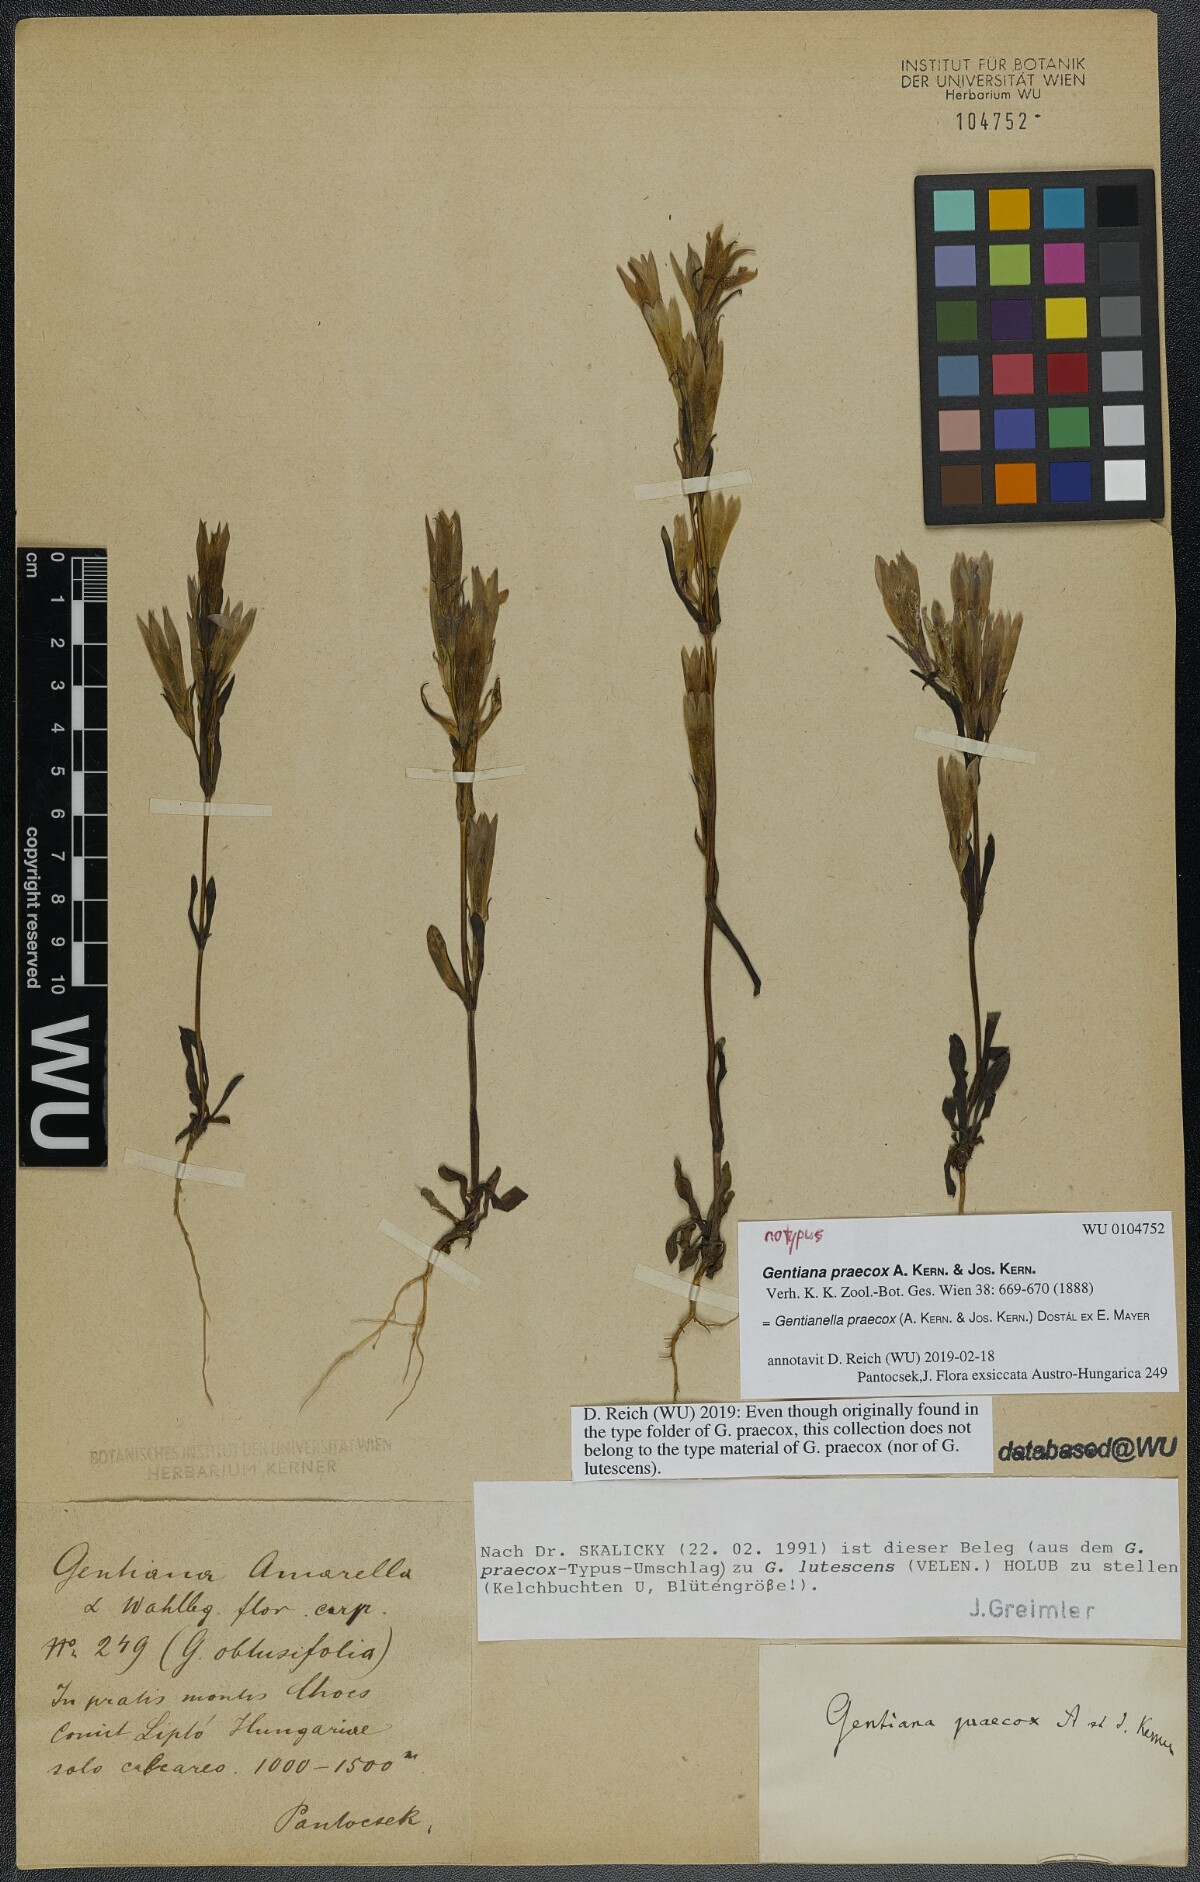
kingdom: Plantae
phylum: Tracheophyta
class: Magnoliopsida
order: Gentianales
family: Gentianaceae
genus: Gentianella
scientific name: Gentianella praecox
